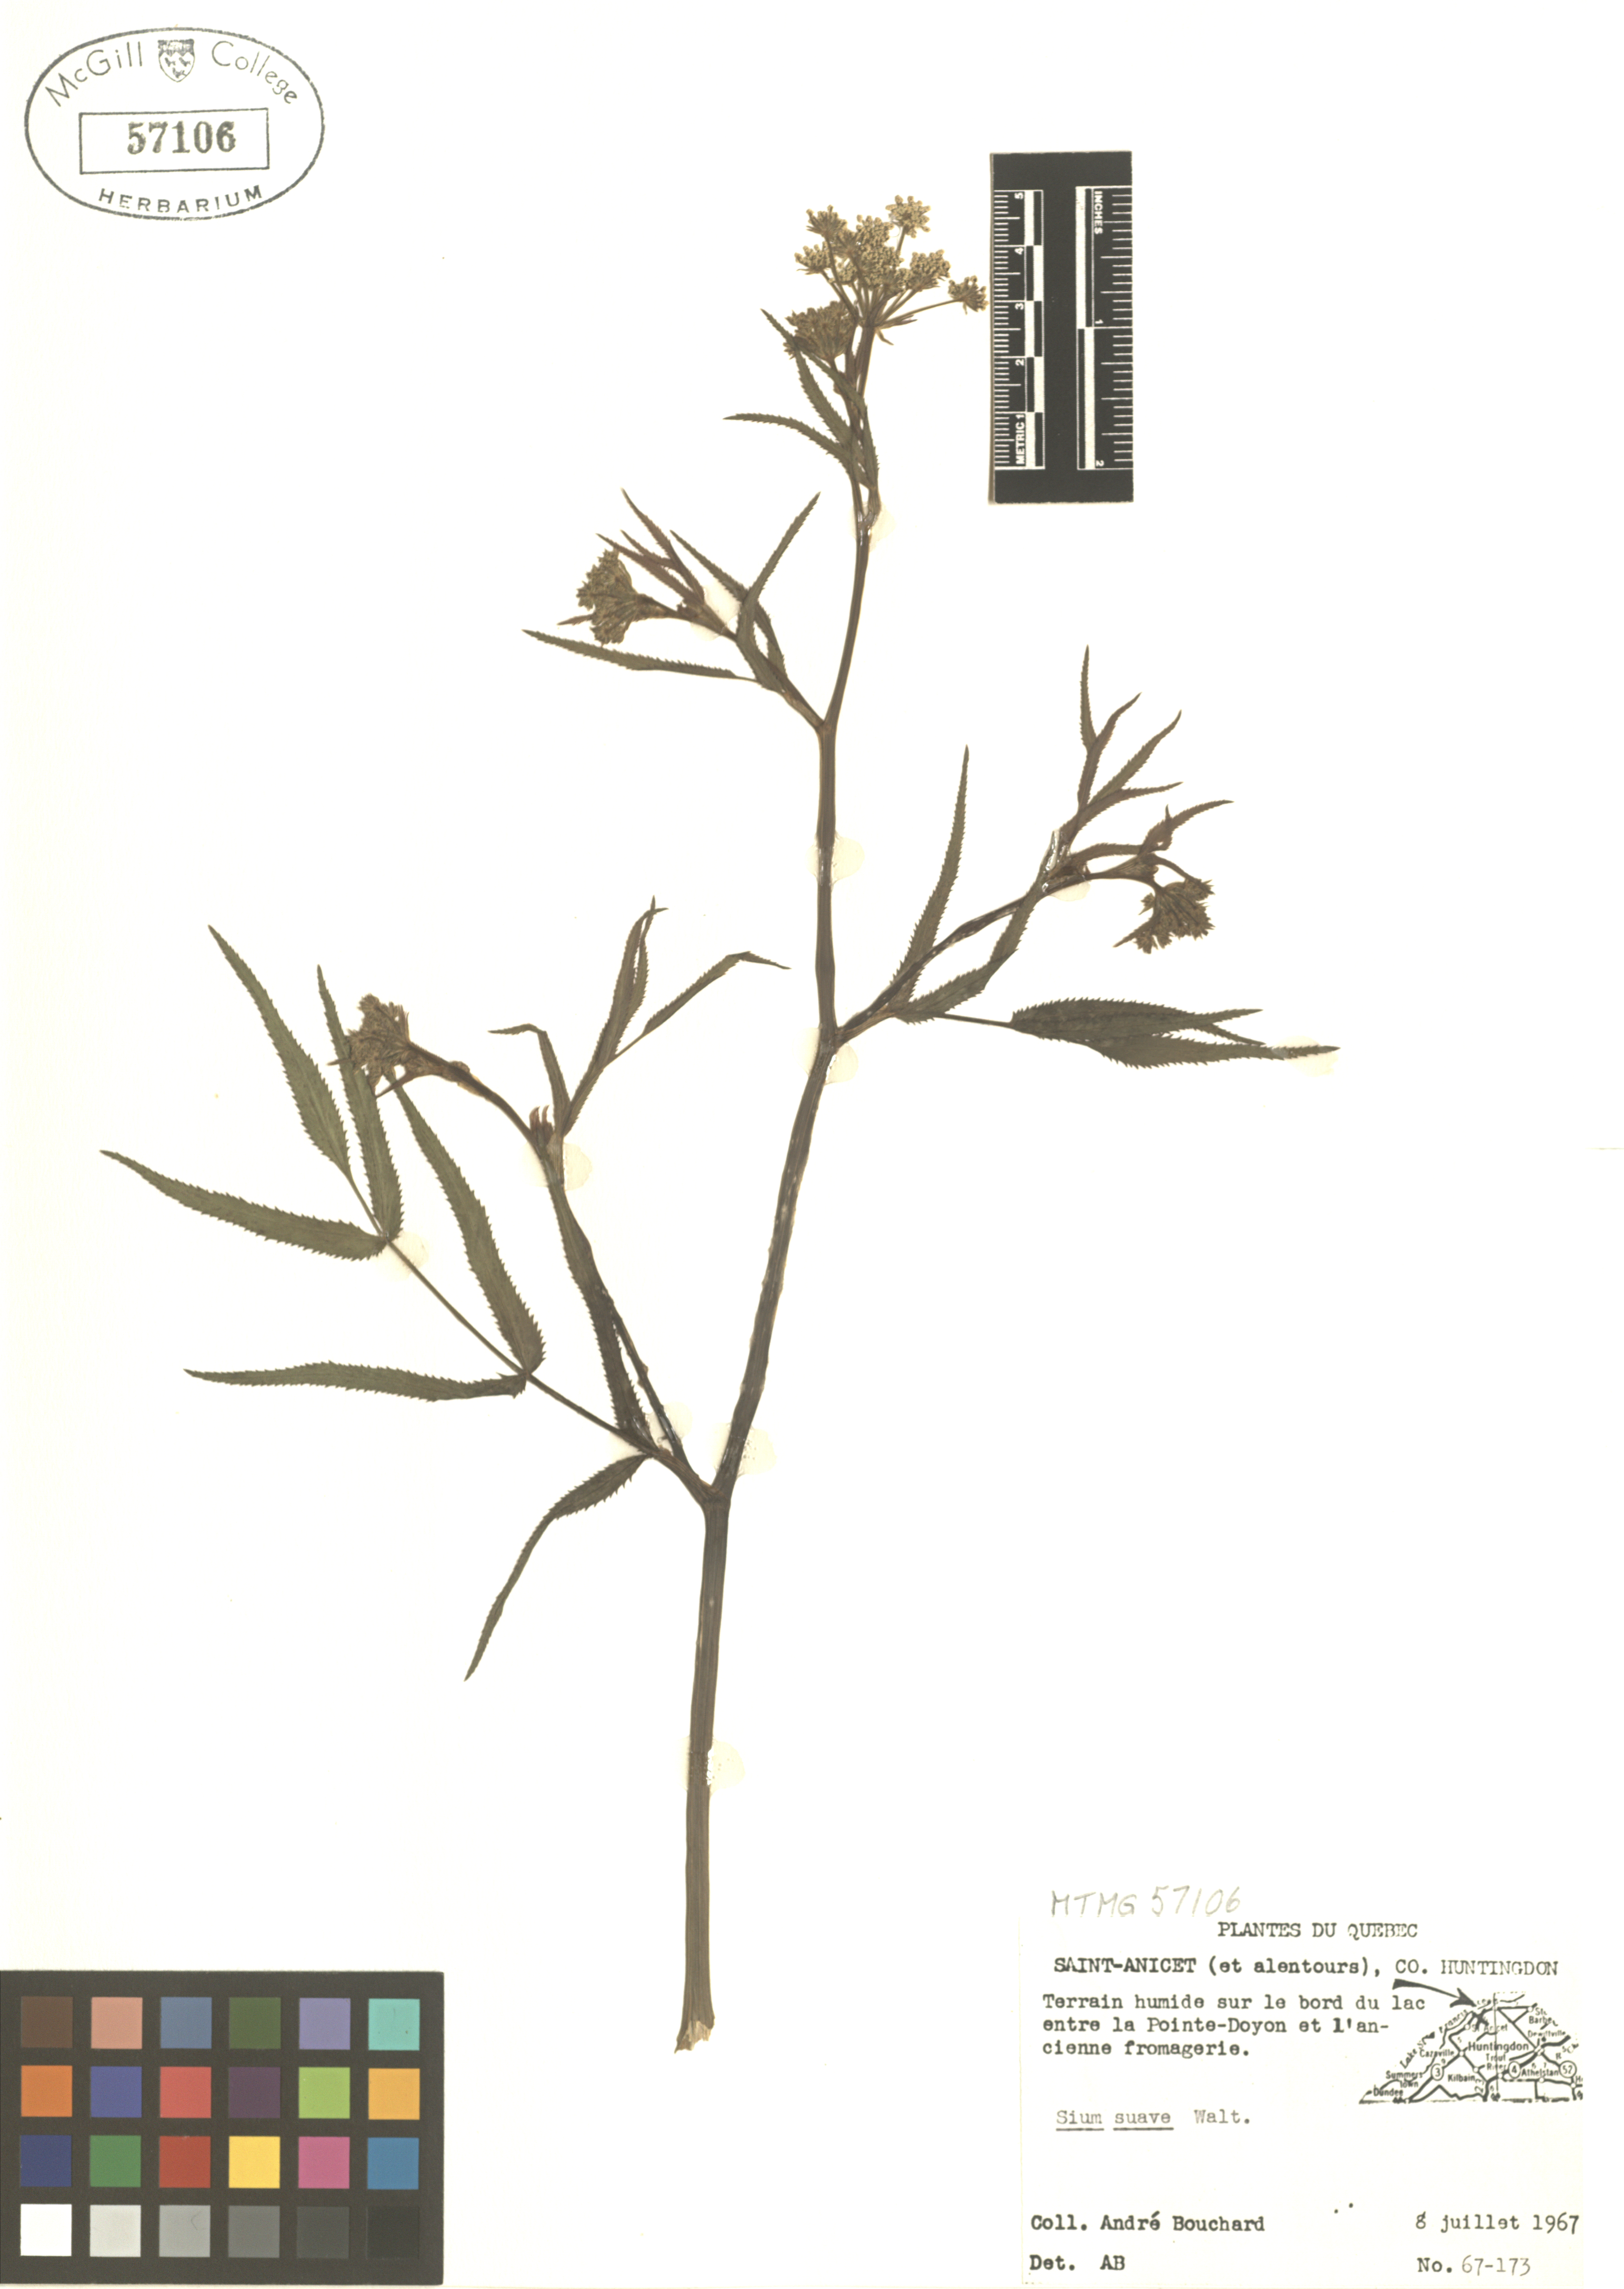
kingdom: Plantae
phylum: Tracheophyta
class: Magnoliopsida
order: Apiales
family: Apiaceae
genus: Sium
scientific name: Sium suave
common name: Hemlock water-parsnip
